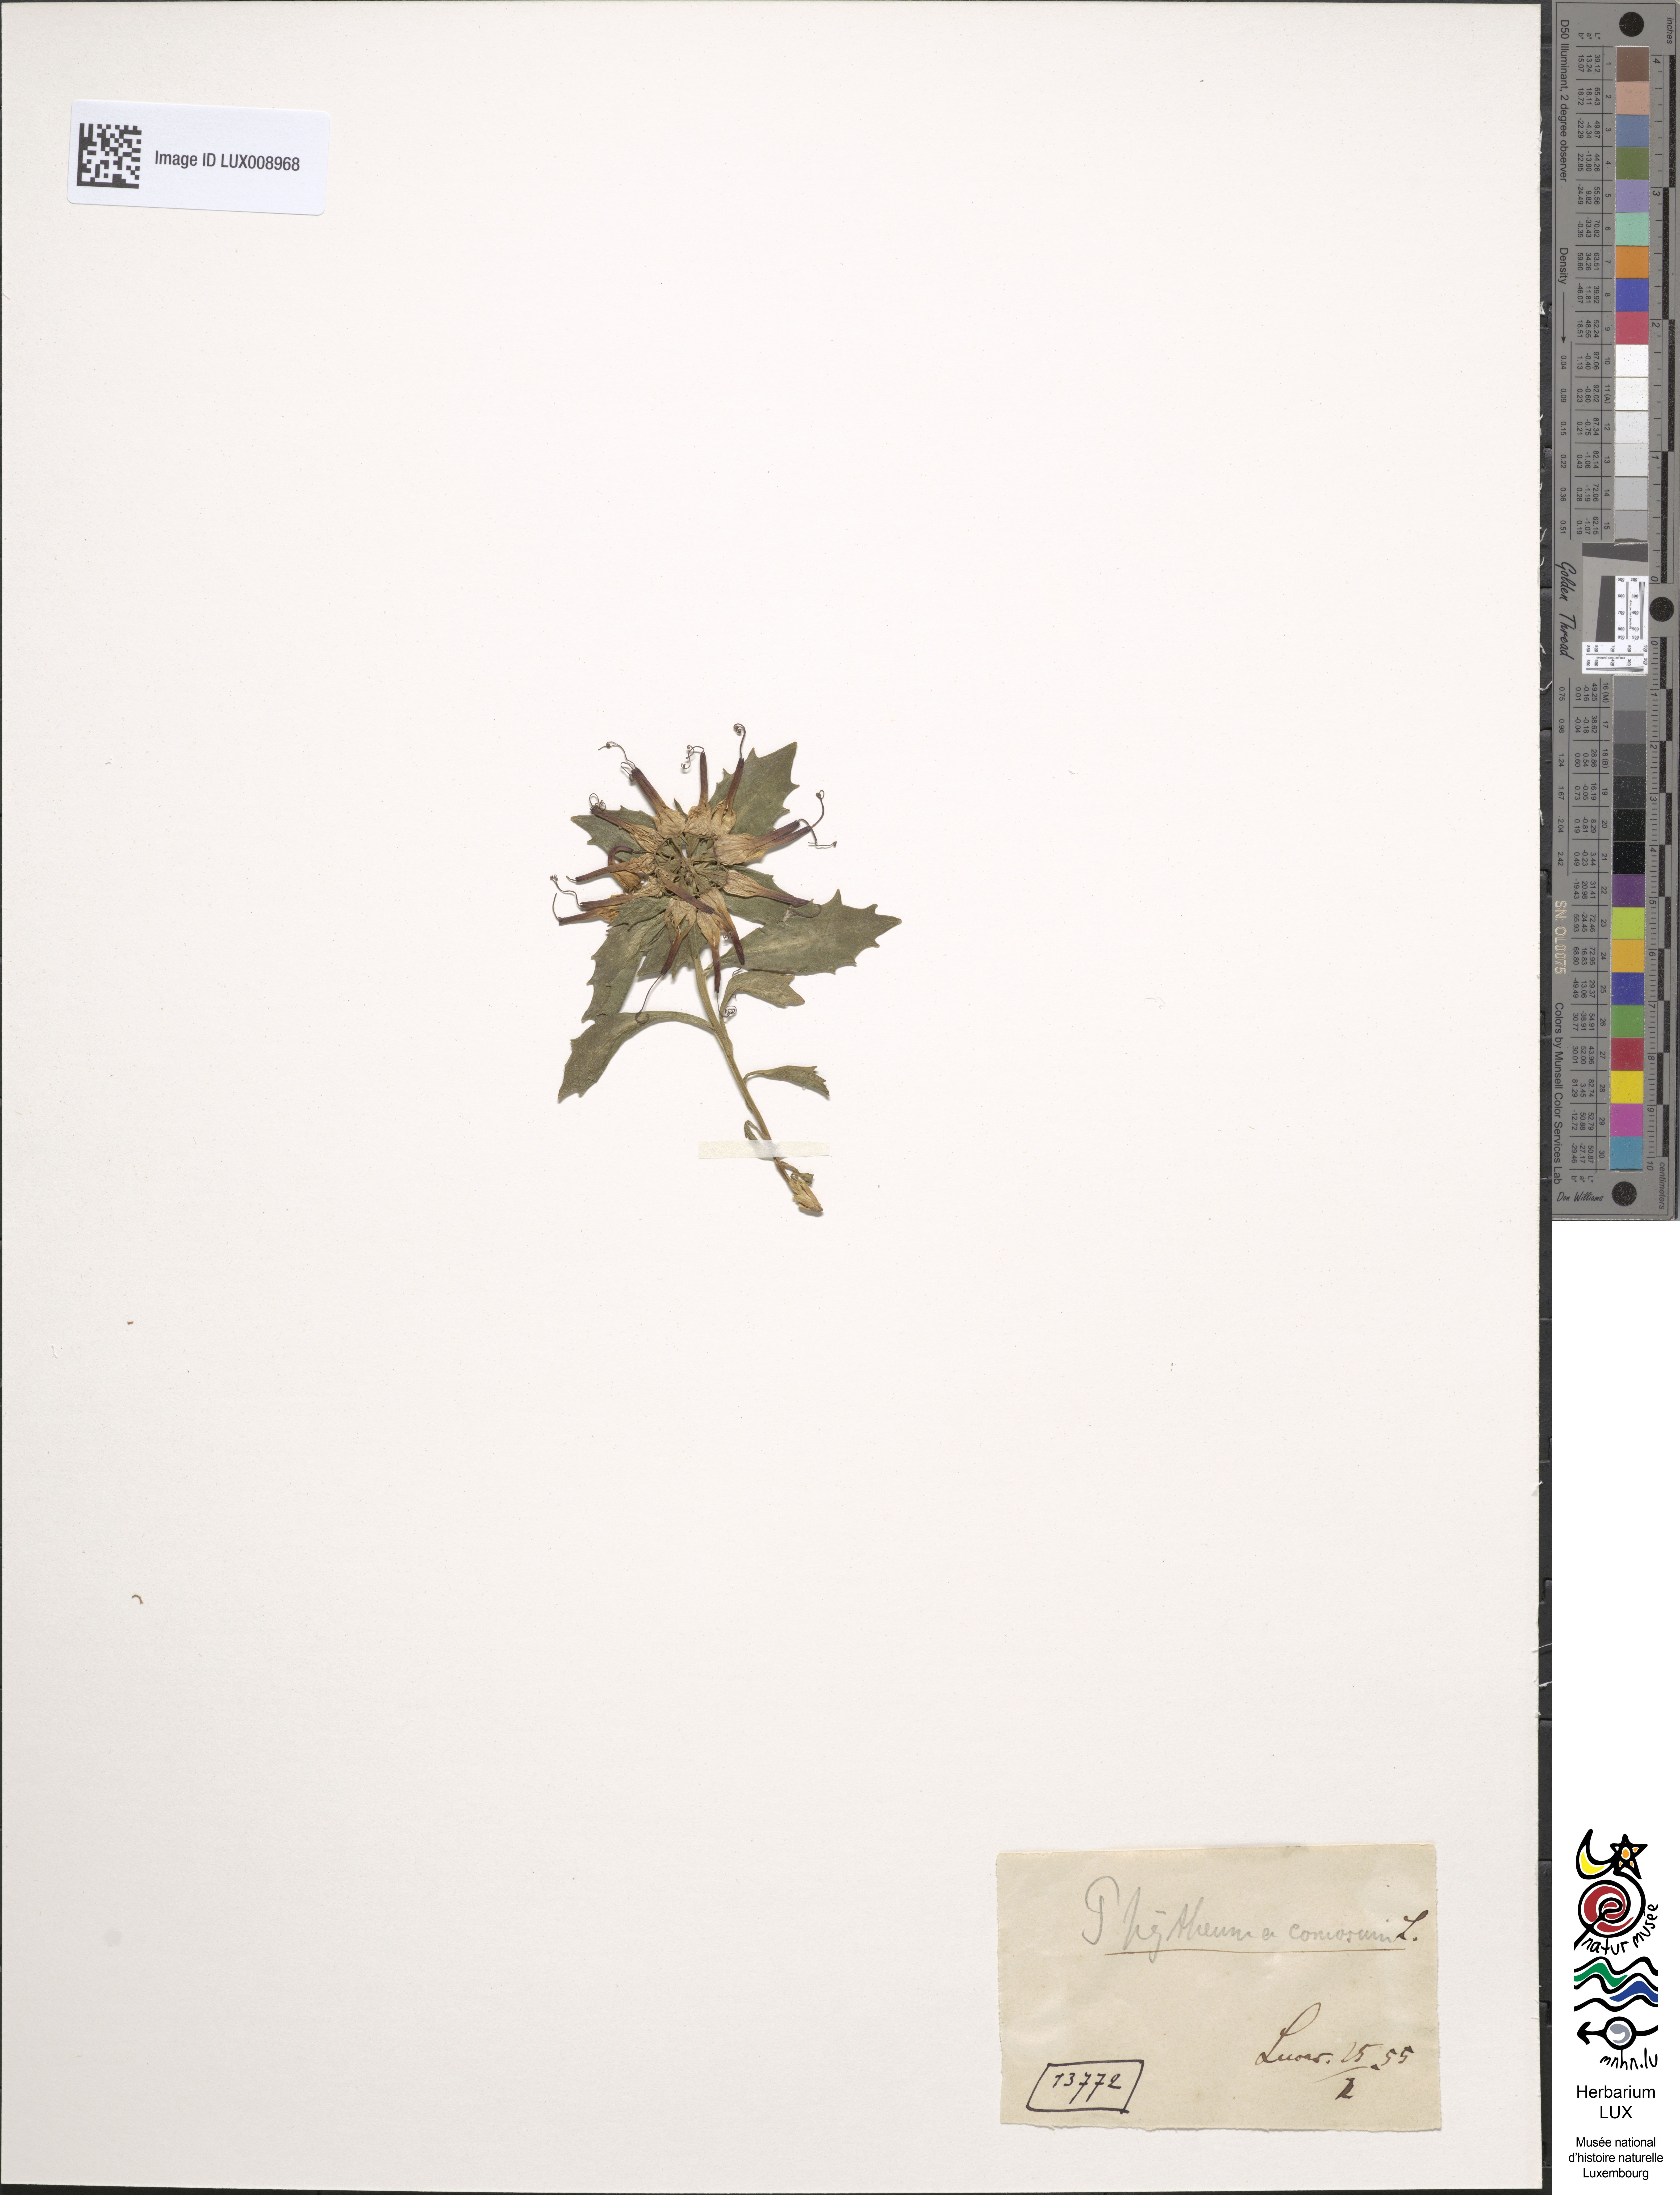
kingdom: Fungi
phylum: Ascomycota
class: Leotiomycetes
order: Helotiales
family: Pezizellaceae
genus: Calycellina
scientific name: Calycellina ulmariae
